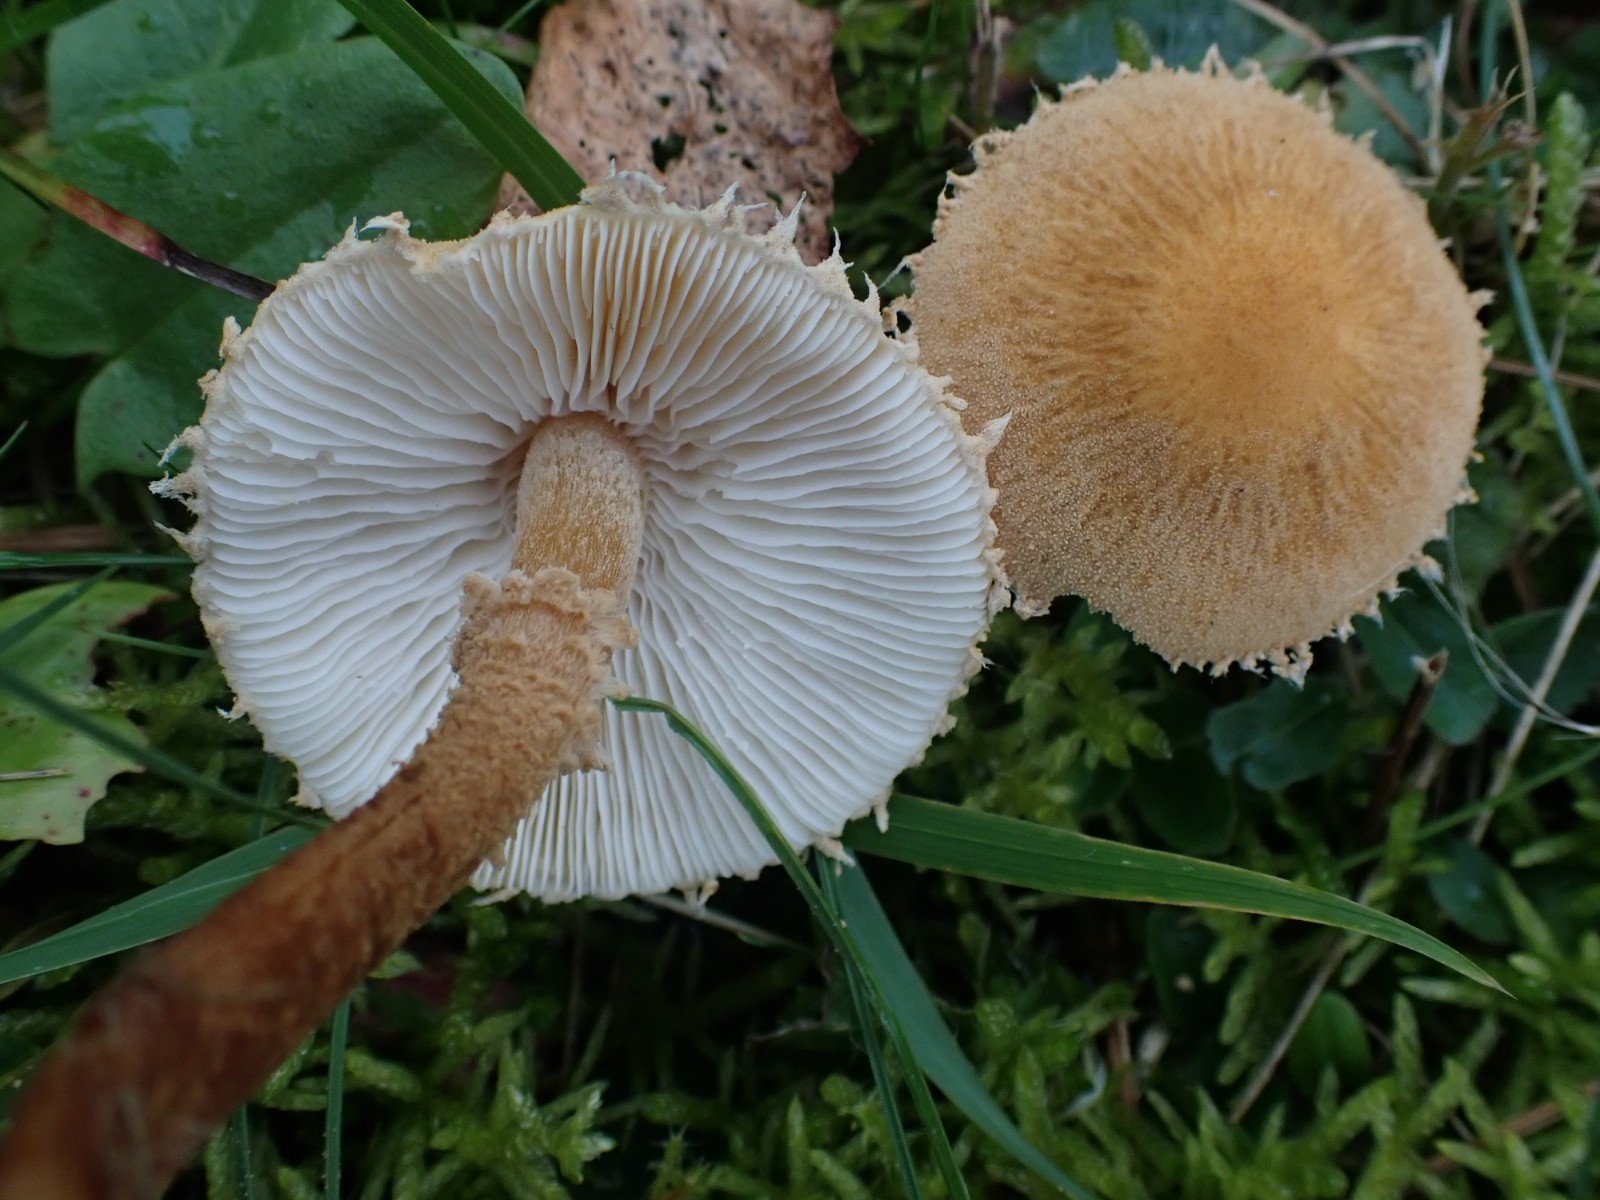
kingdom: Fungi
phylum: Basidiomycota
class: Agaricomycetes
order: Agaricales
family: Tricholomataceae
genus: Cystoderma
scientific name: Cystoderma amianthinum
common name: okkergul grynhat
